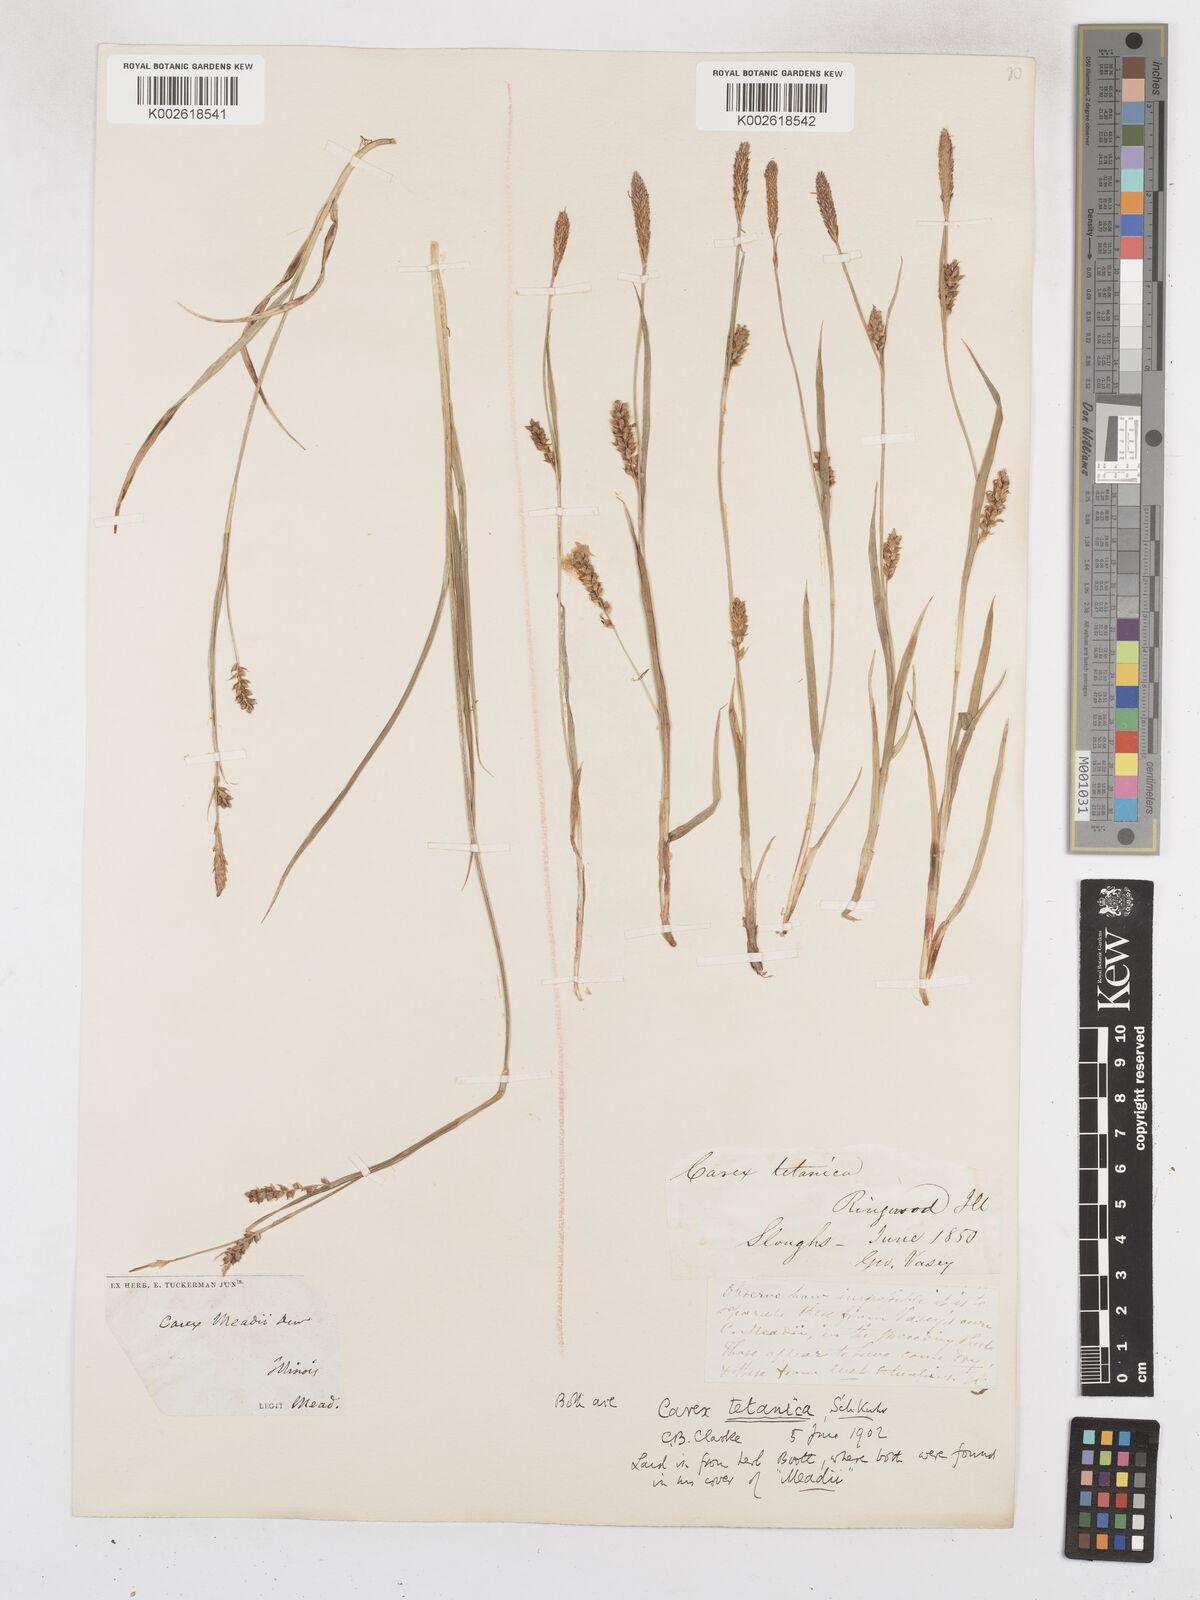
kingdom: Plantae
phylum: Tracheophyta
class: Liliopsida
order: Poales
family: Cyperaceae
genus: Carex
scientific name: Carex meadii
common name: Mead's sedge
